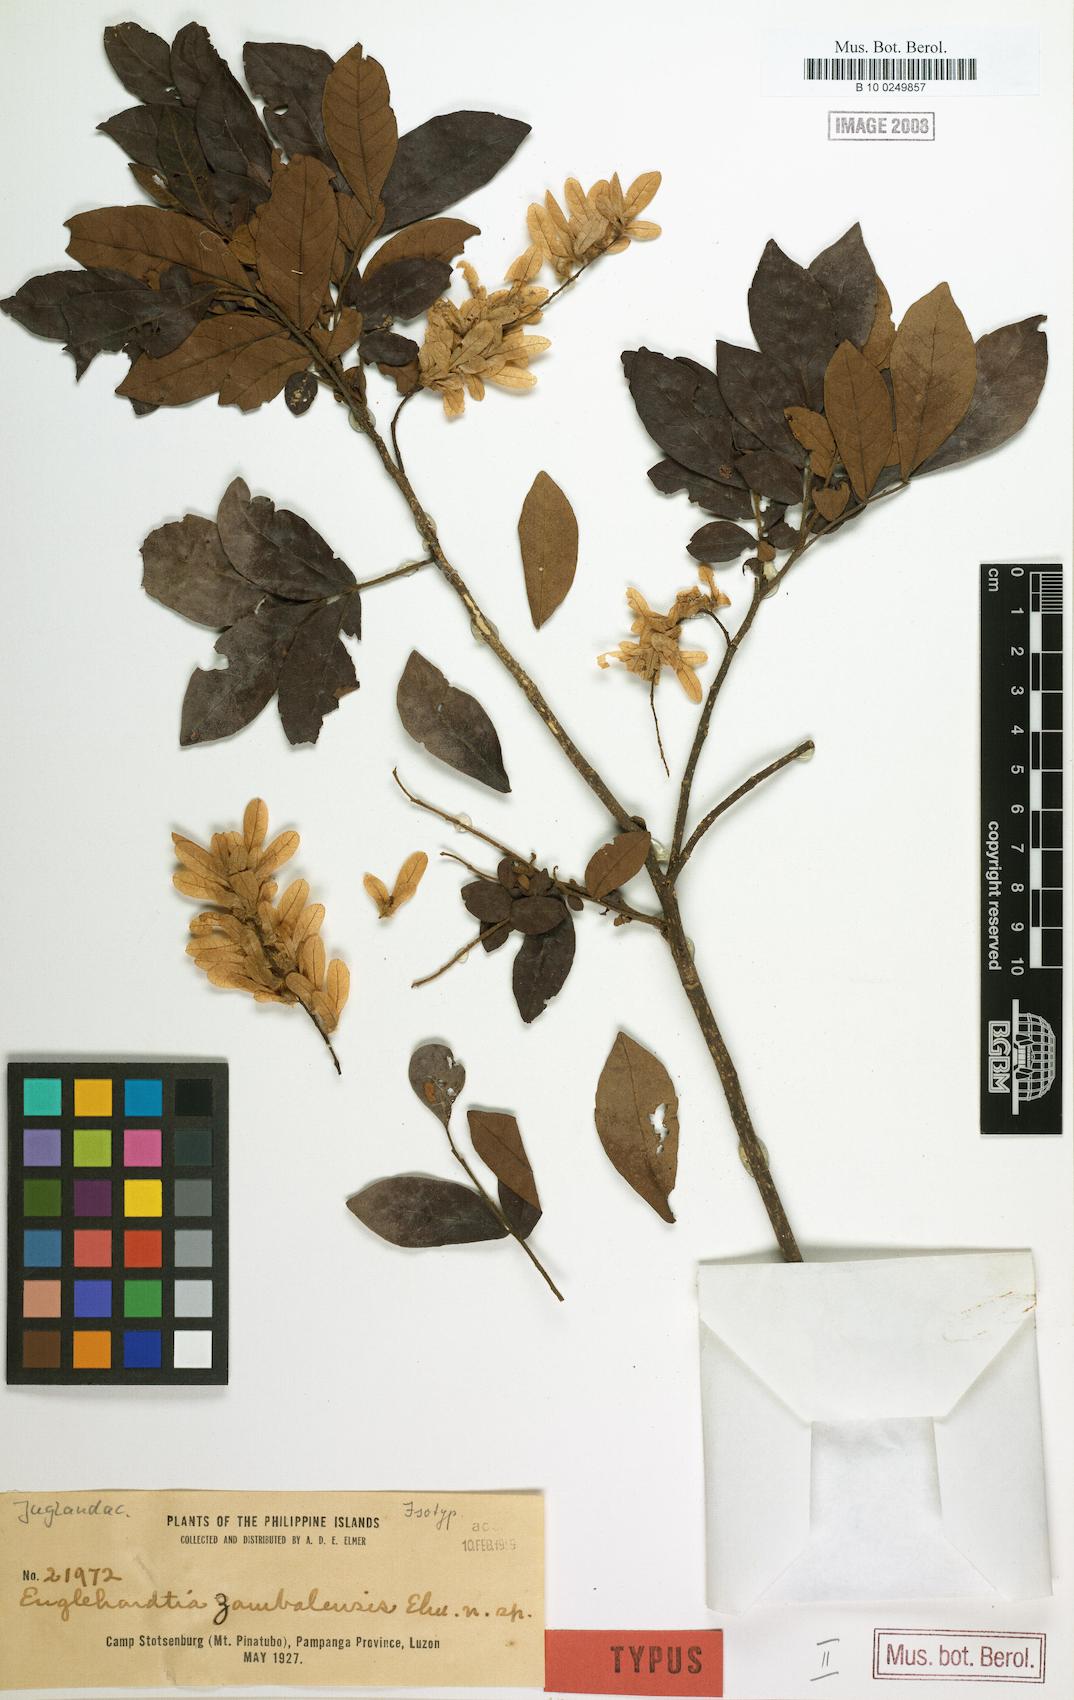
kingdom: Plantae
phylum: Tracheophyta
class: Magnoliopsida
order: Fagales
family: Juglandaceae
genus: Engelhardtia
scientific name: Engelhardtia rigida
